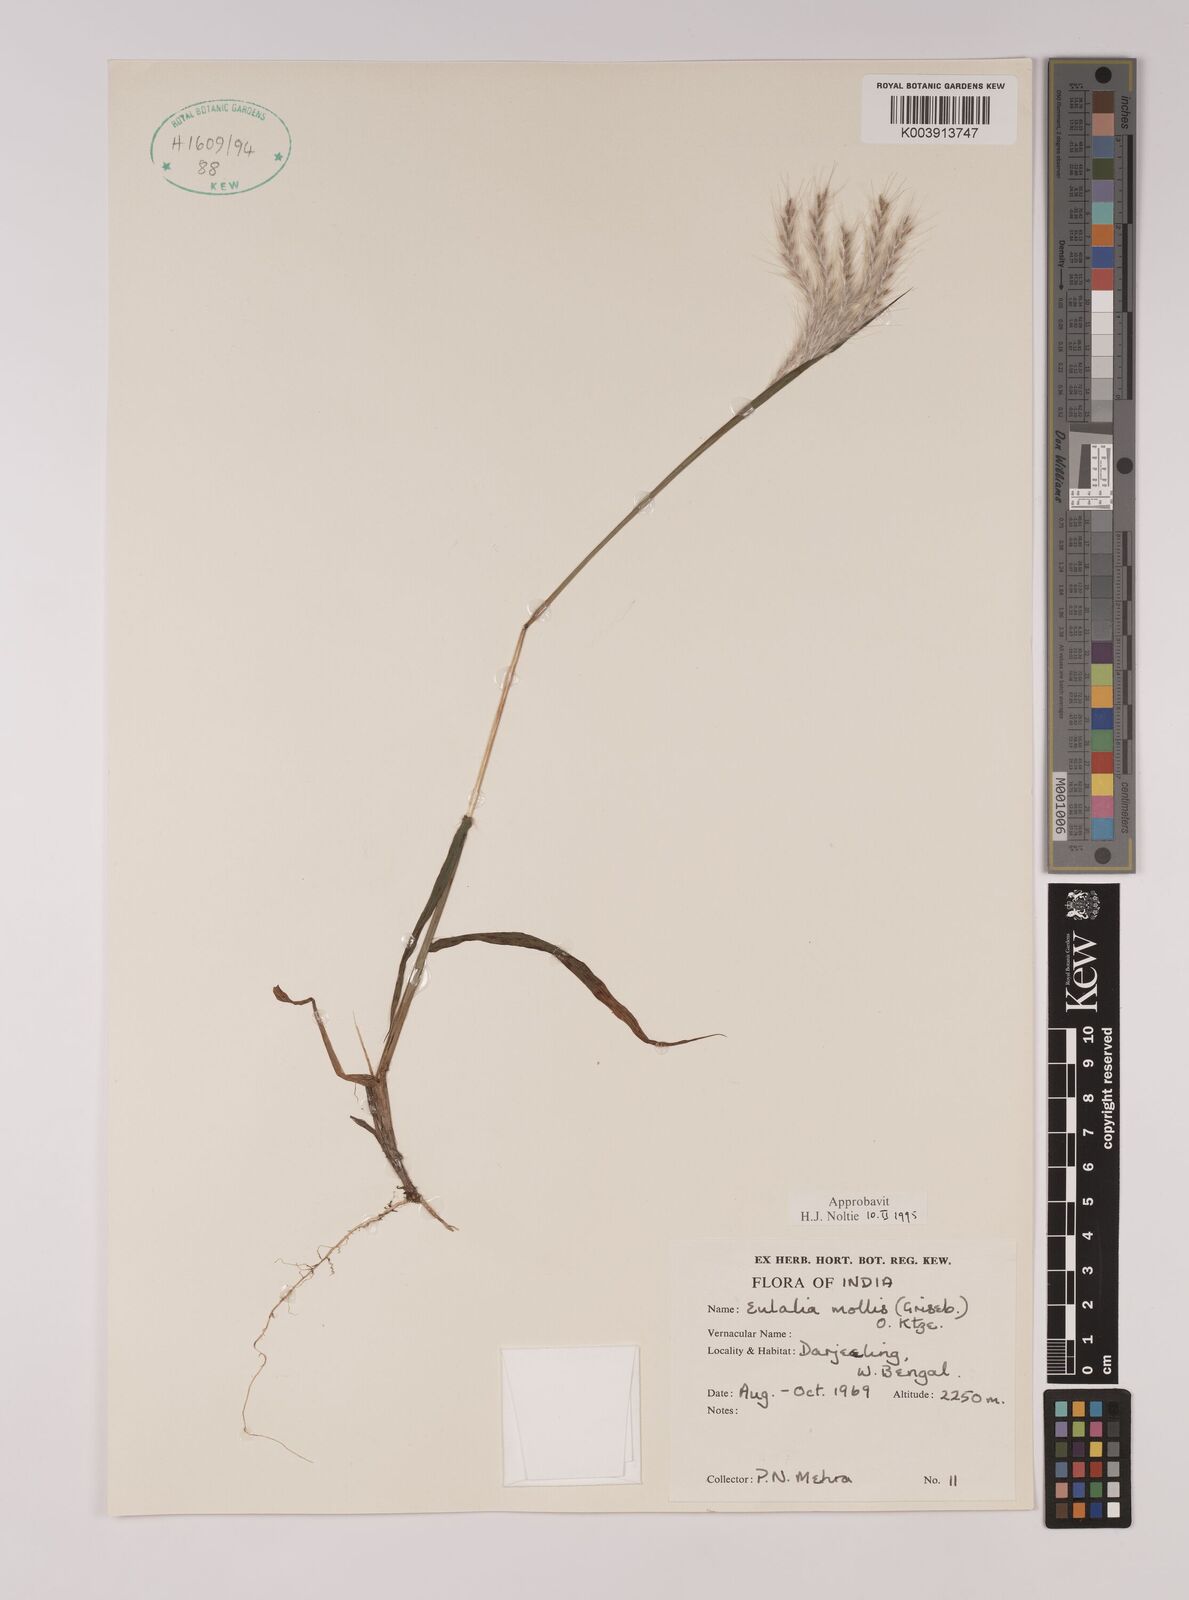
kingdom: Plantae
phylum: Tracheophyta
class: Liliopsida
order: Poales
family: Poaceae
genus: Eulalia
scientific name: Eulalia mollis
